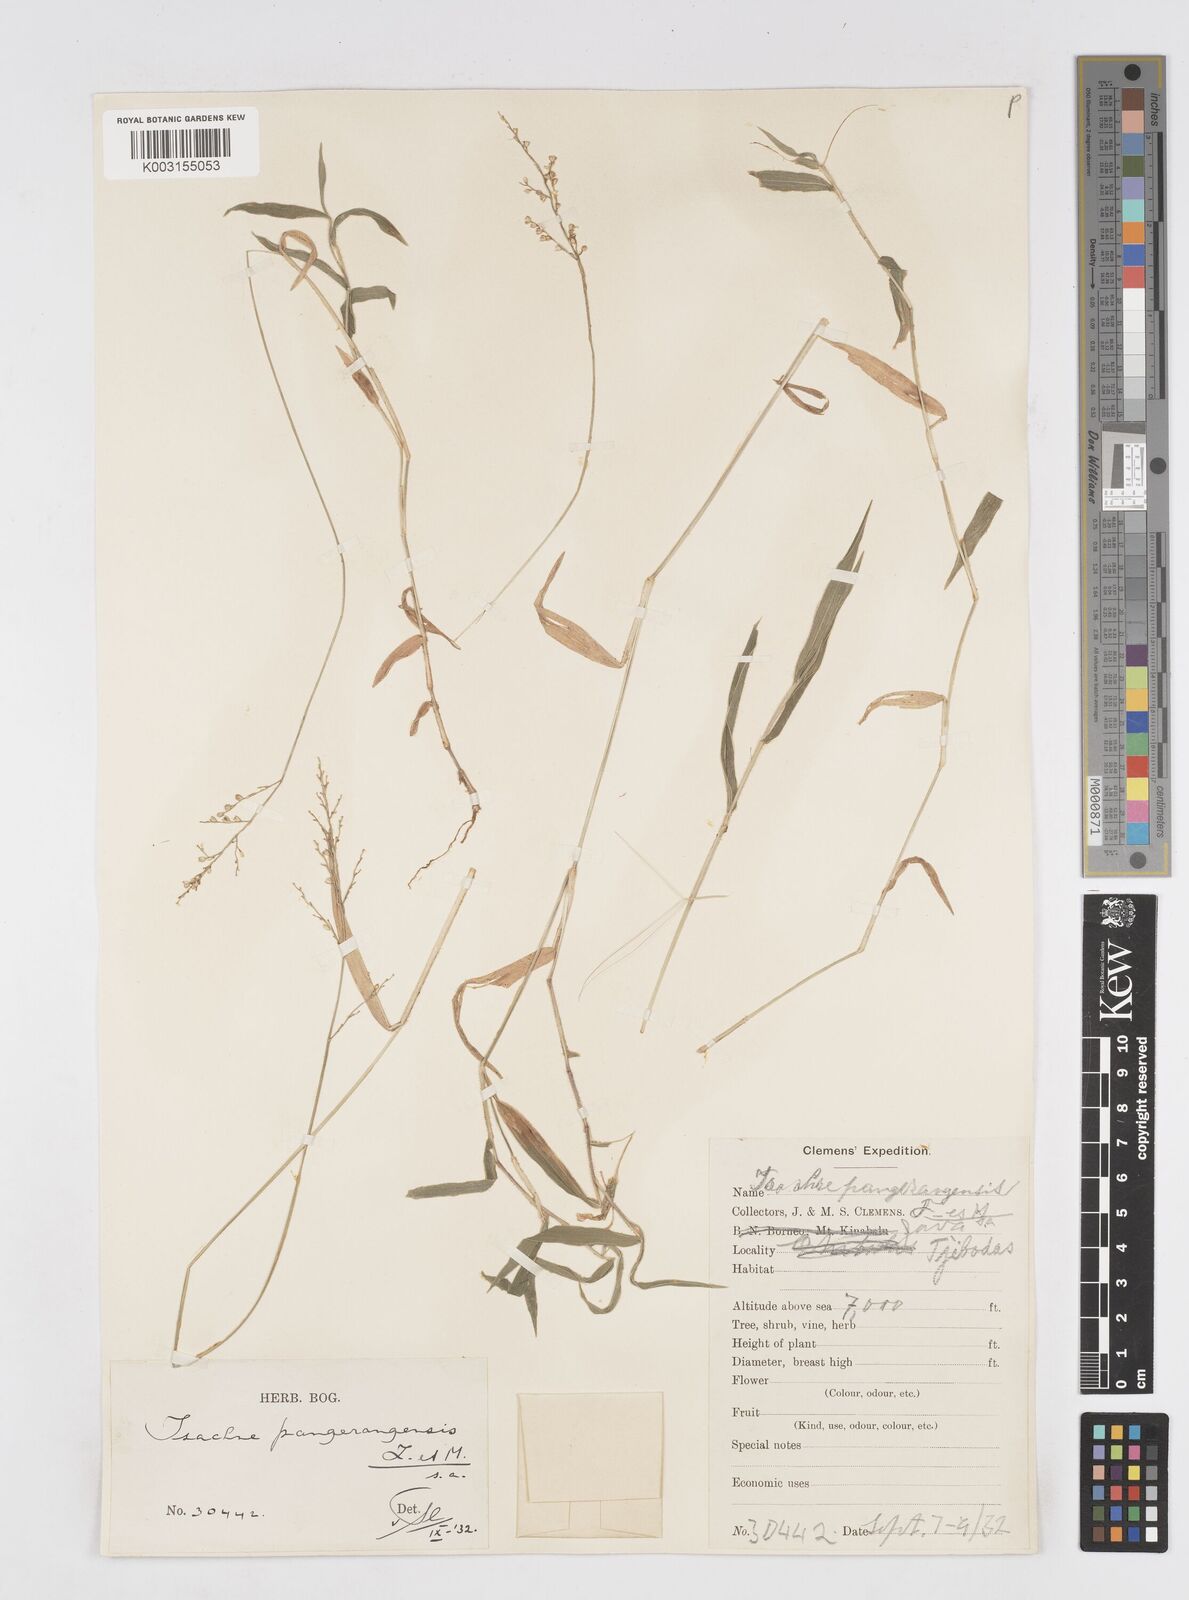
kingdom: Plantae
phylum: Tracheophyta
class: Liliopsida
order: Poales
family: Poaceae
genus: Isachne
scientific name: Isachne pangerangensis
